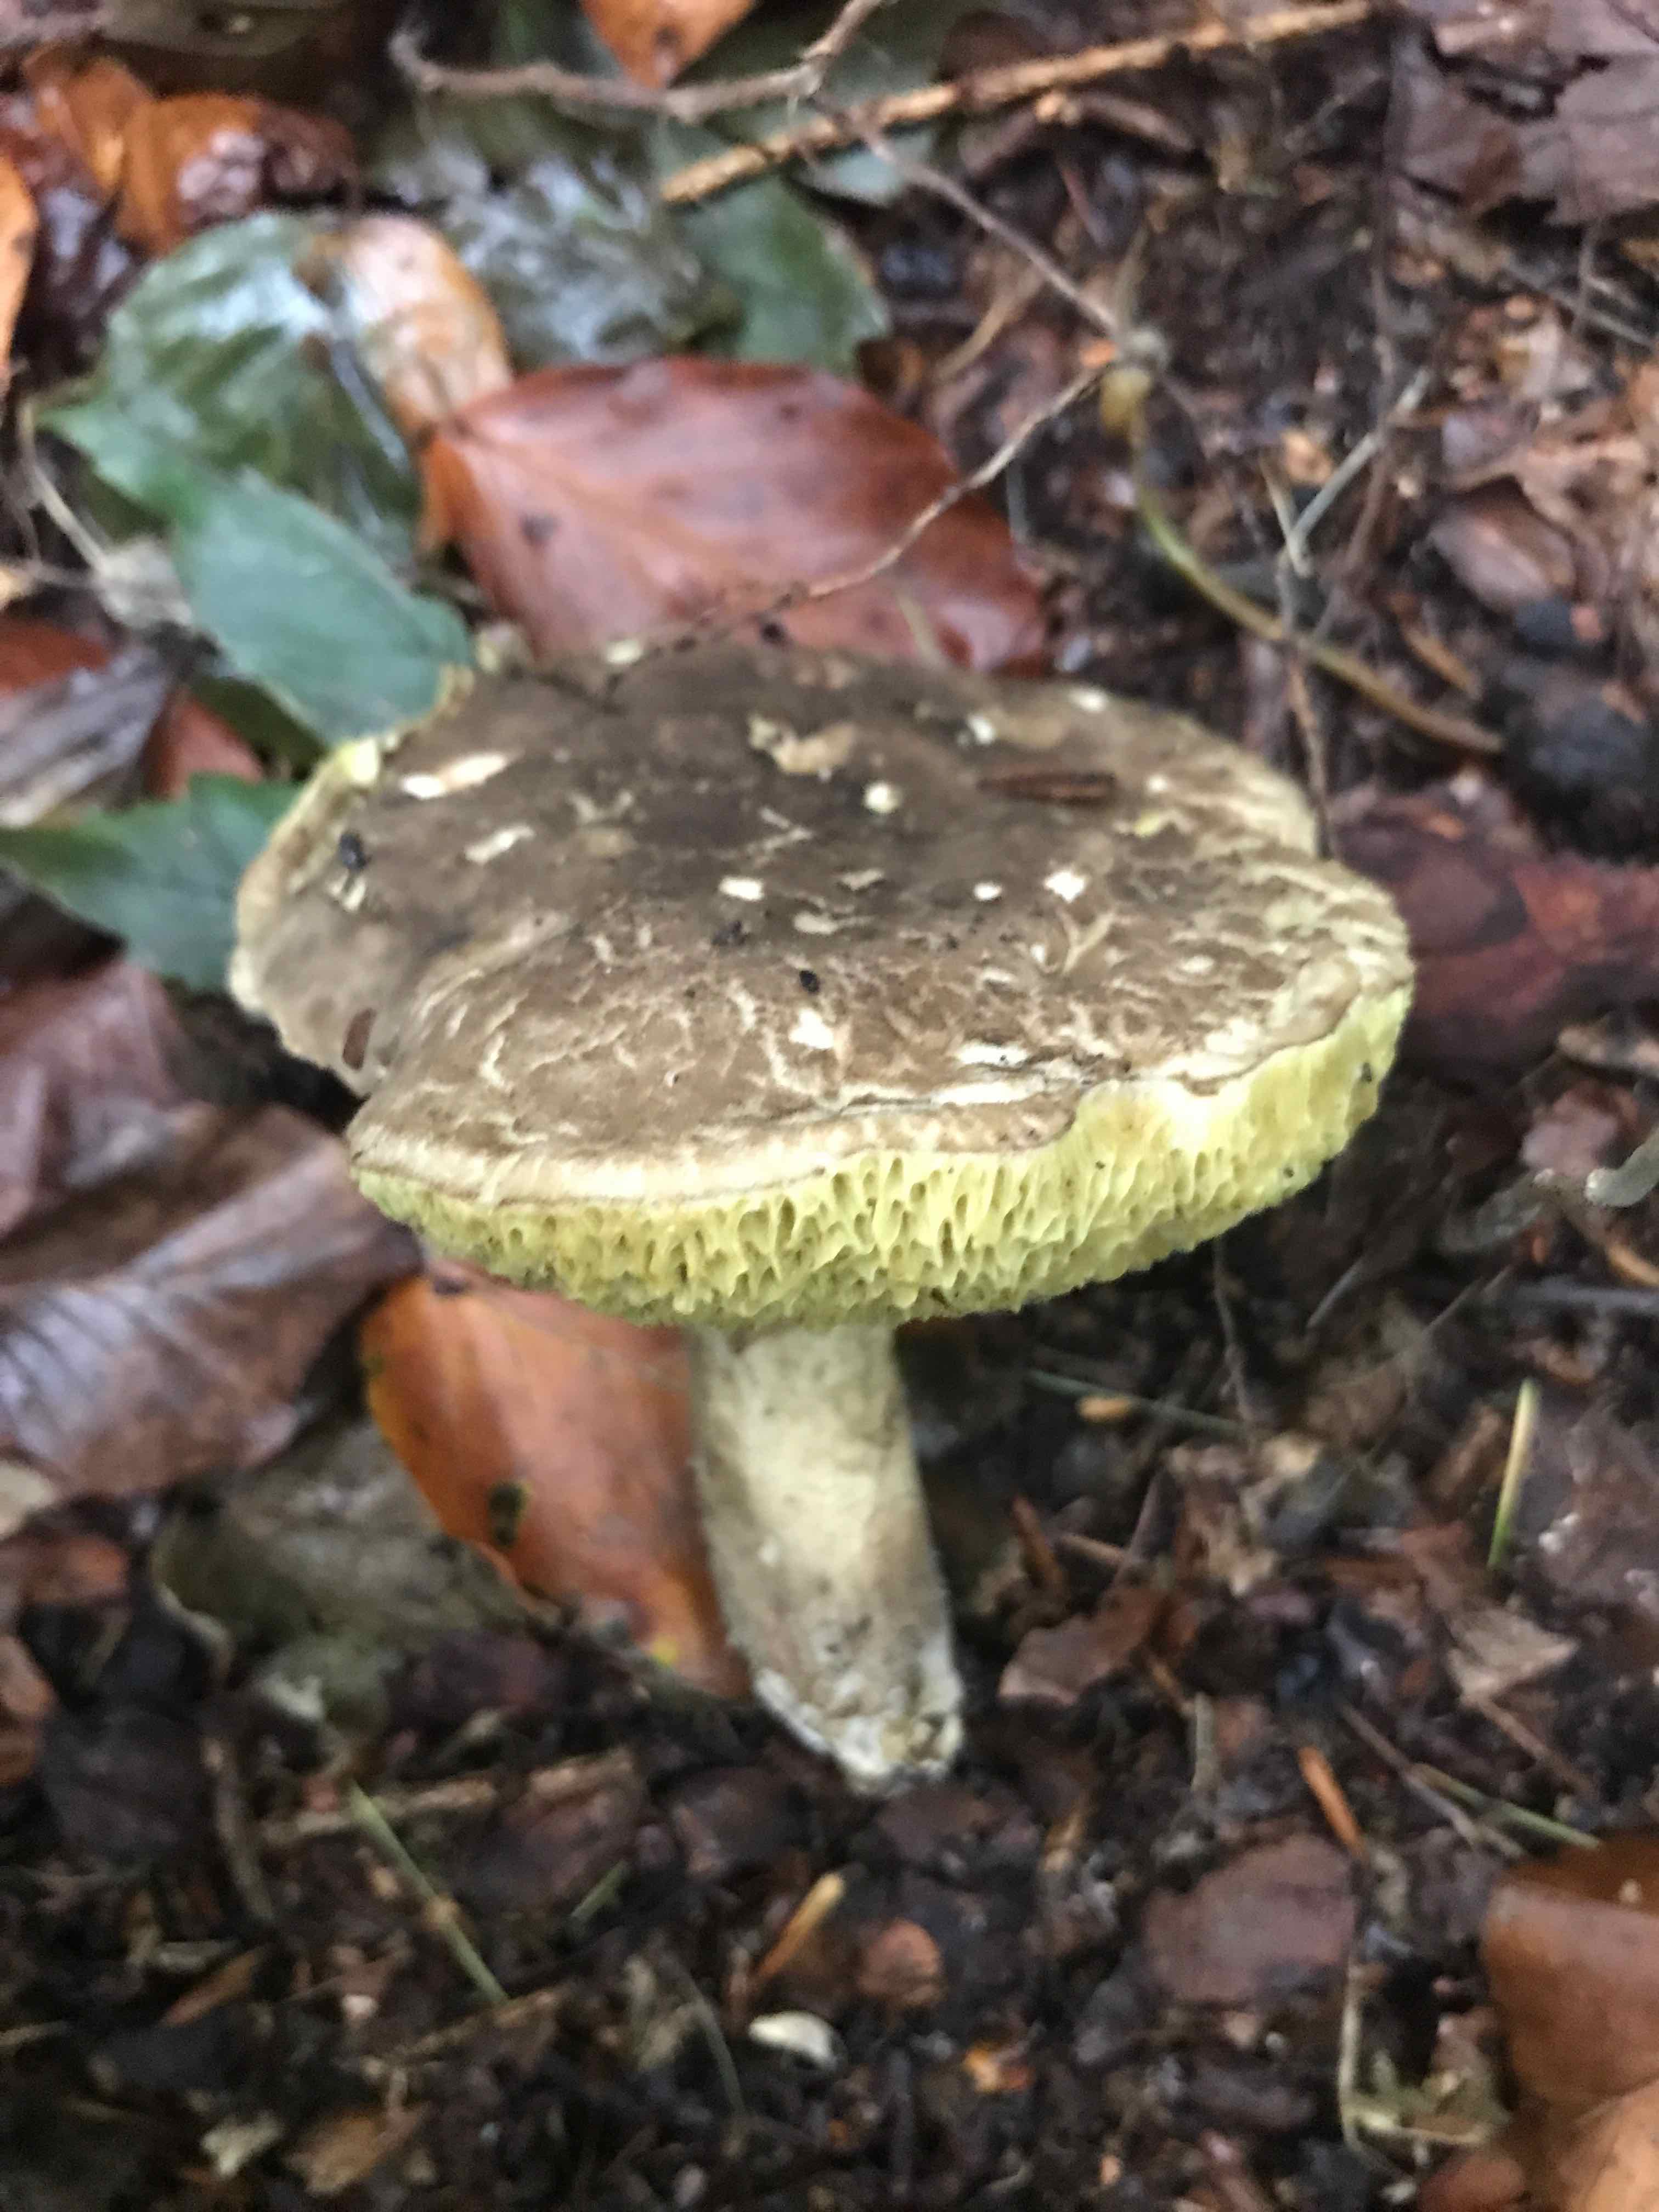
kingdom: Fungi
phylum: Basidiomycota
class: Agaricomycetes
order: Boletales
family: Boletaceae
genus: Xerocomellus
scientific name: Xerocomellus porosporus
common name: hvidsprukken rørhat
